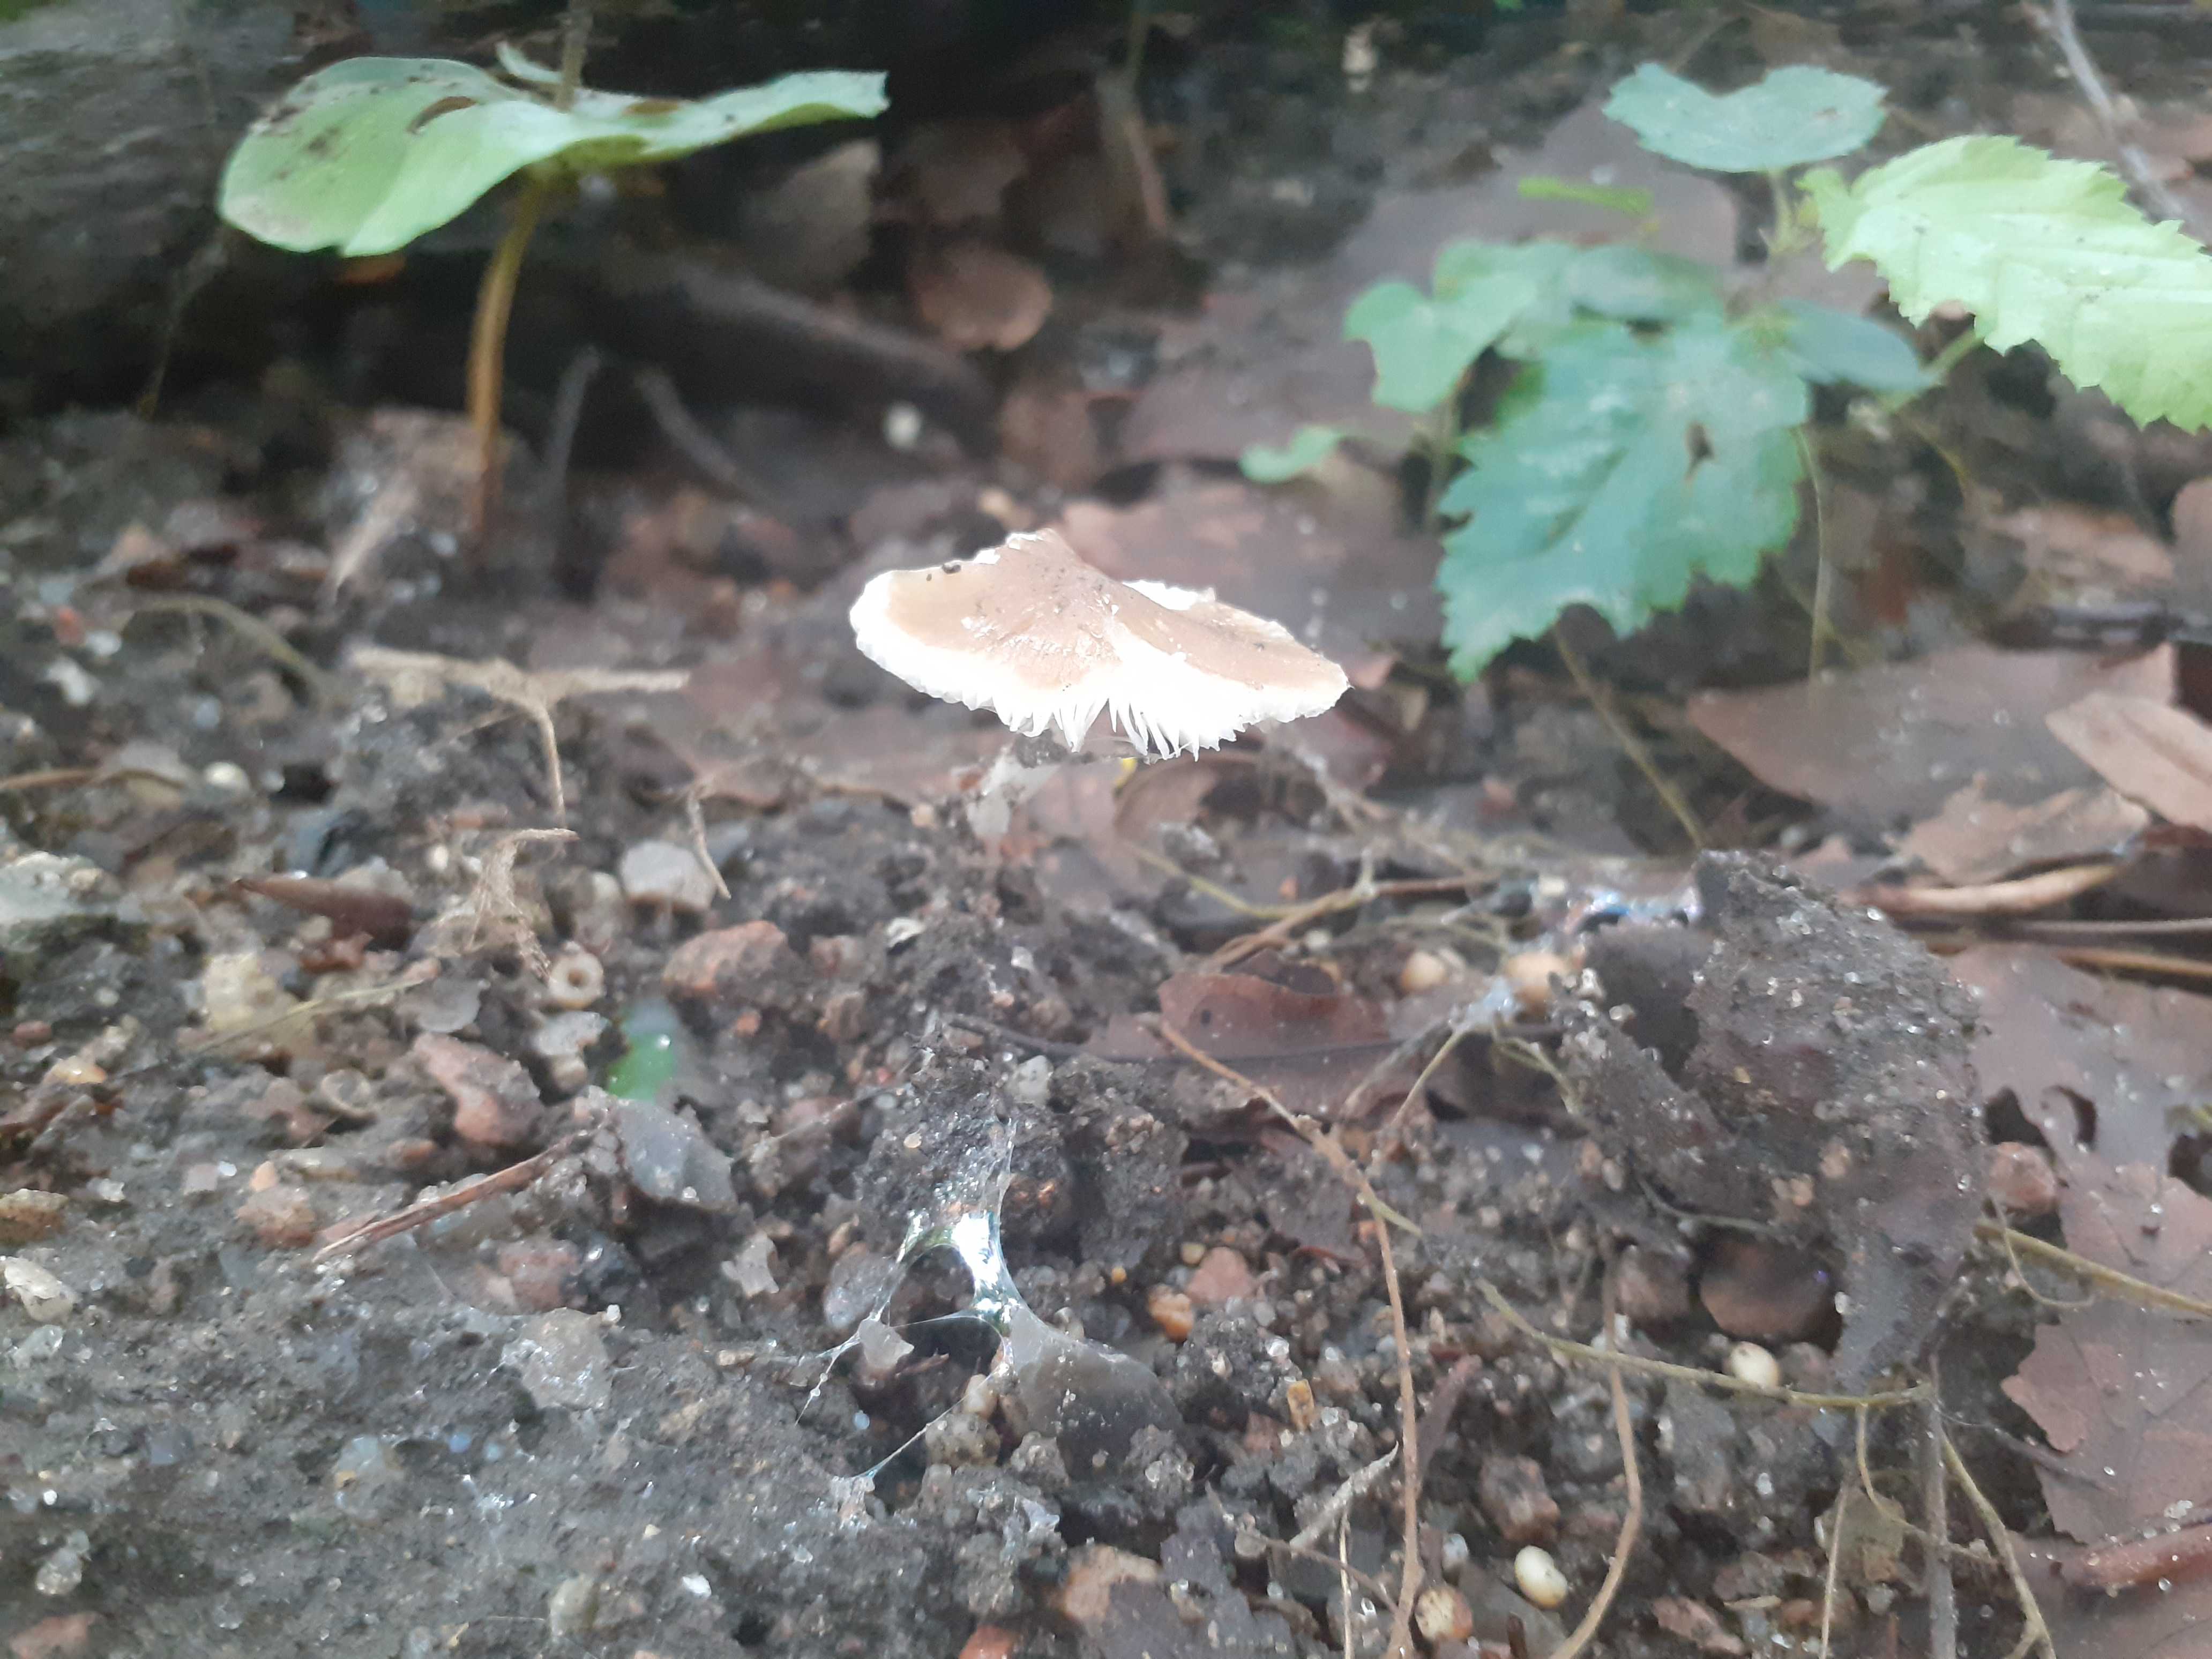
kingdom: Fungi
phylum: Basidiomycota
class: Agaricomycetes
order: Agaricales
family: Porotheleaceae
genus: Hydropodia
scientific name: Hydropodia subalpina
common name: vår-fnugfod
